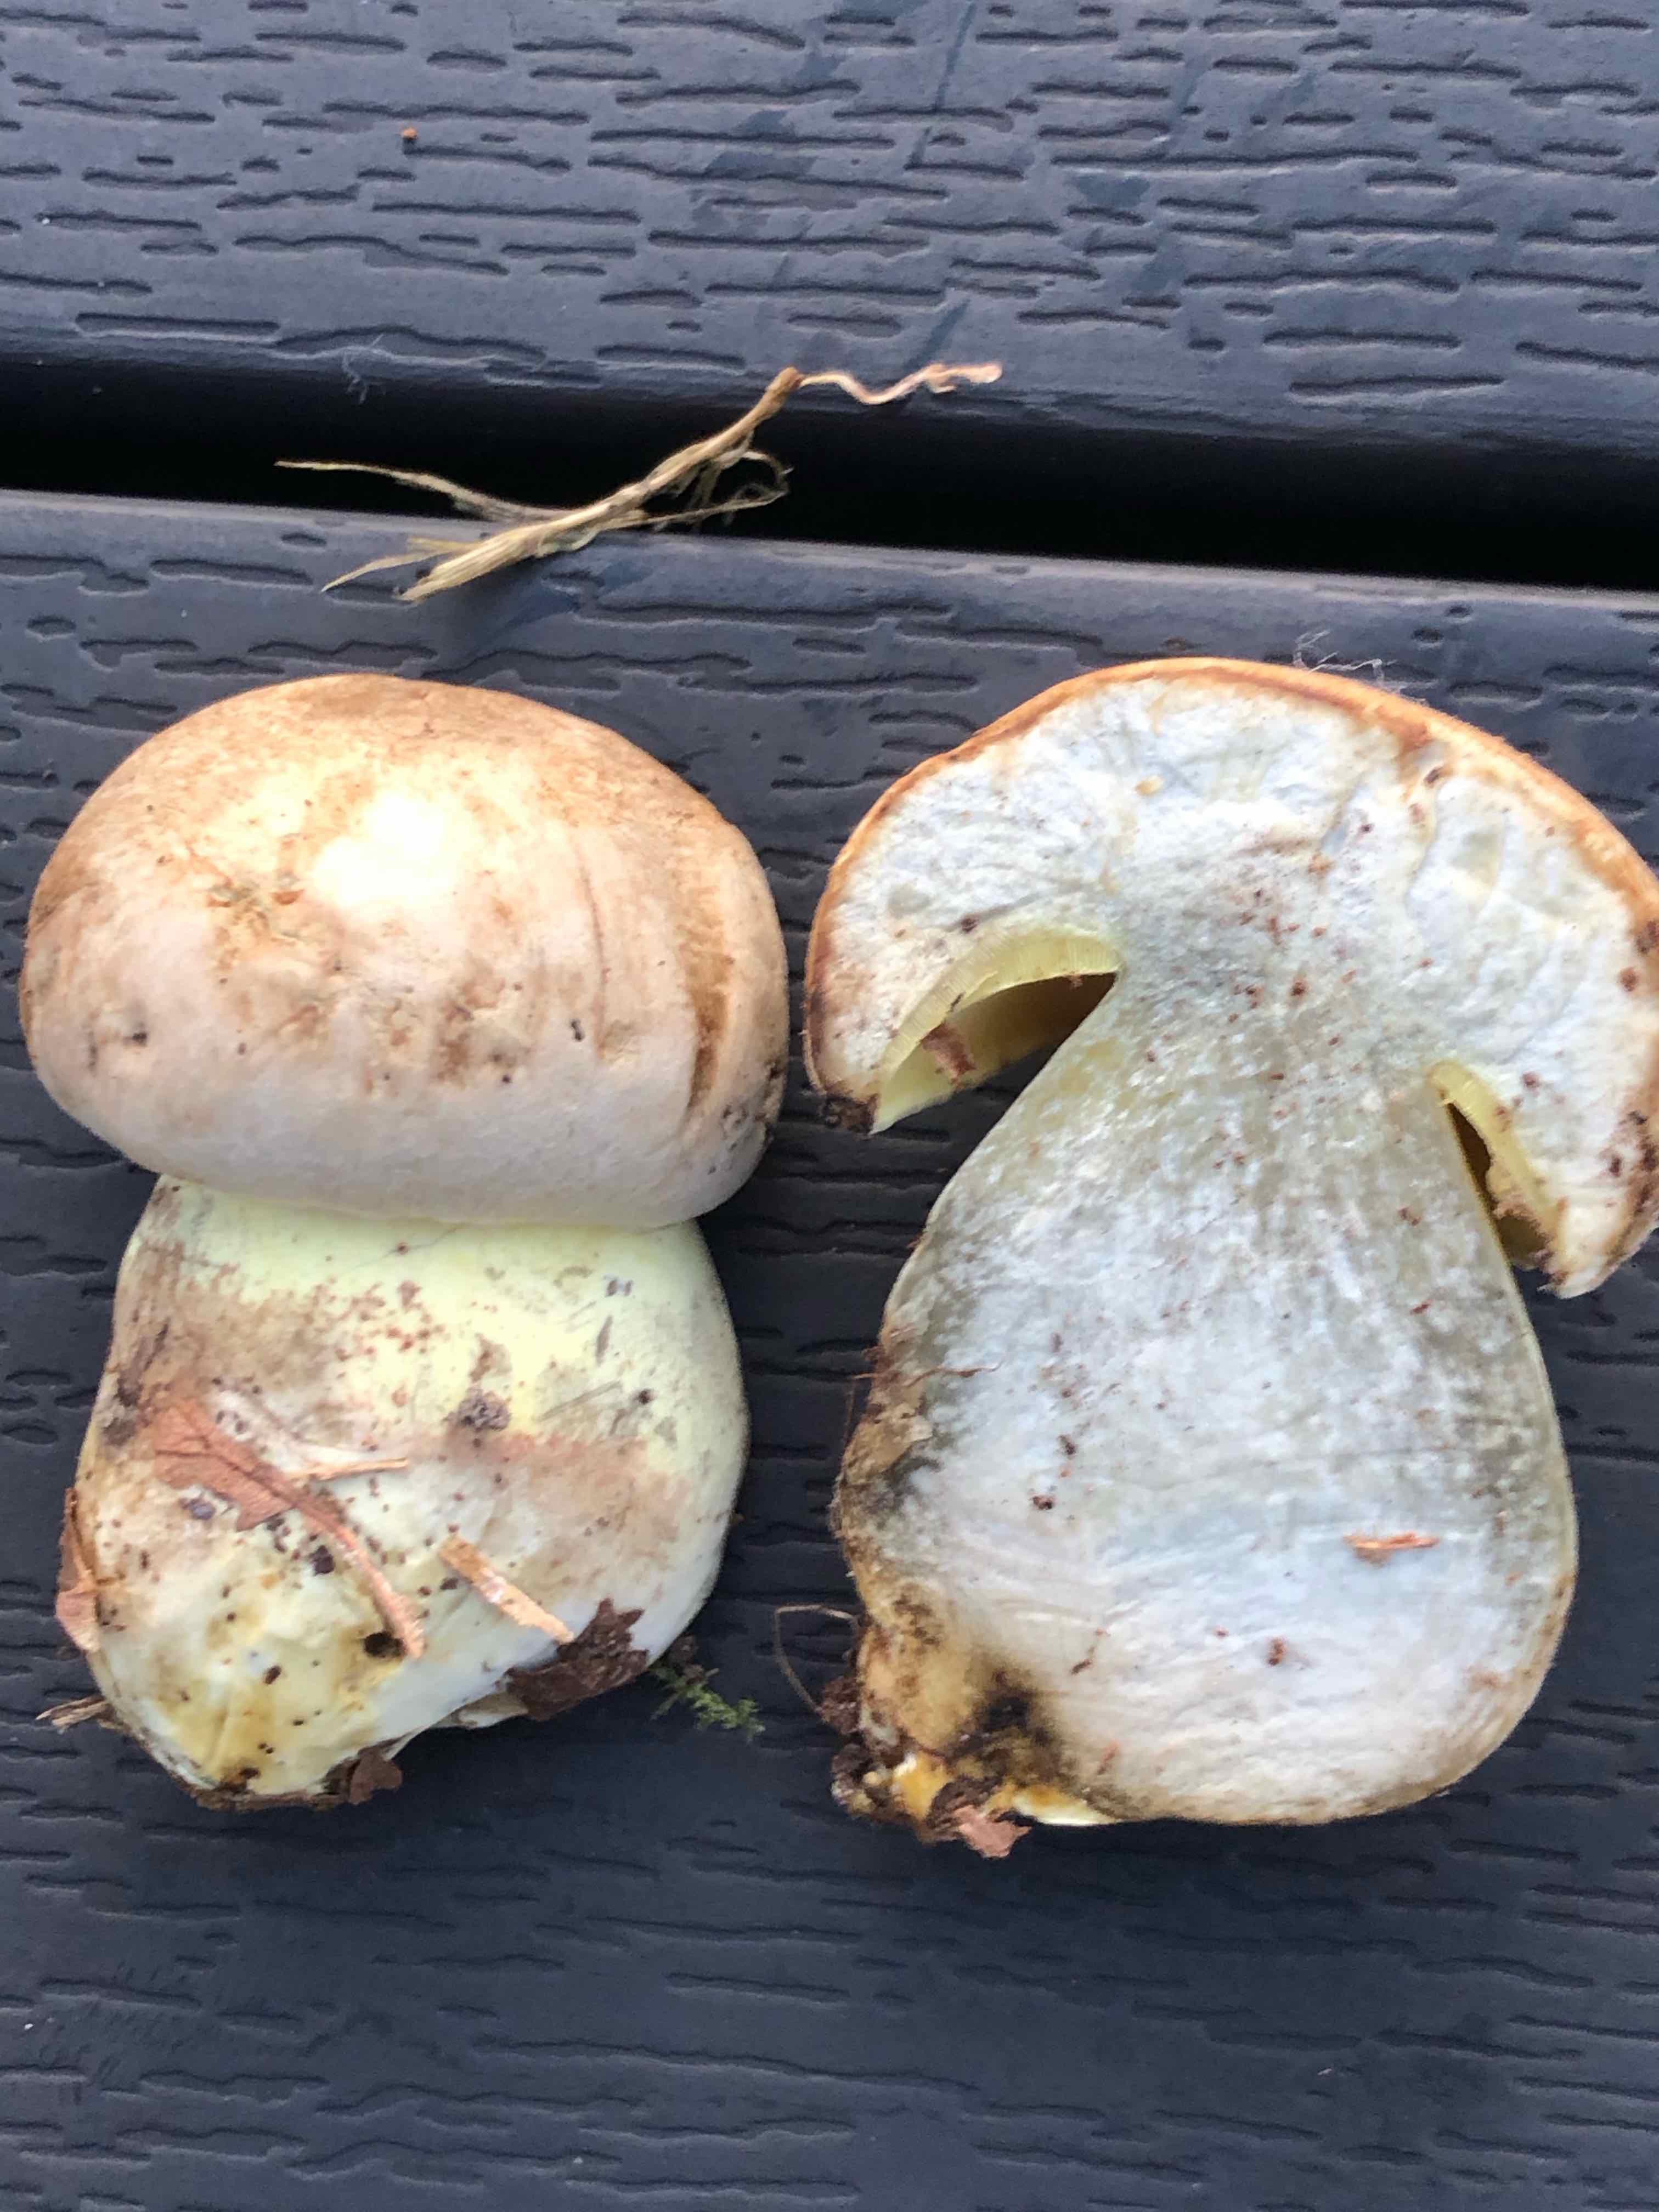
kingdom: Fungi
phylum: Basidiomycota
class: Agaricomycetes
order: Boletales
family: Boletaceae
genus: Caloboletus
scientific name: Caloboletus radicans
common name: rod-rørhat
